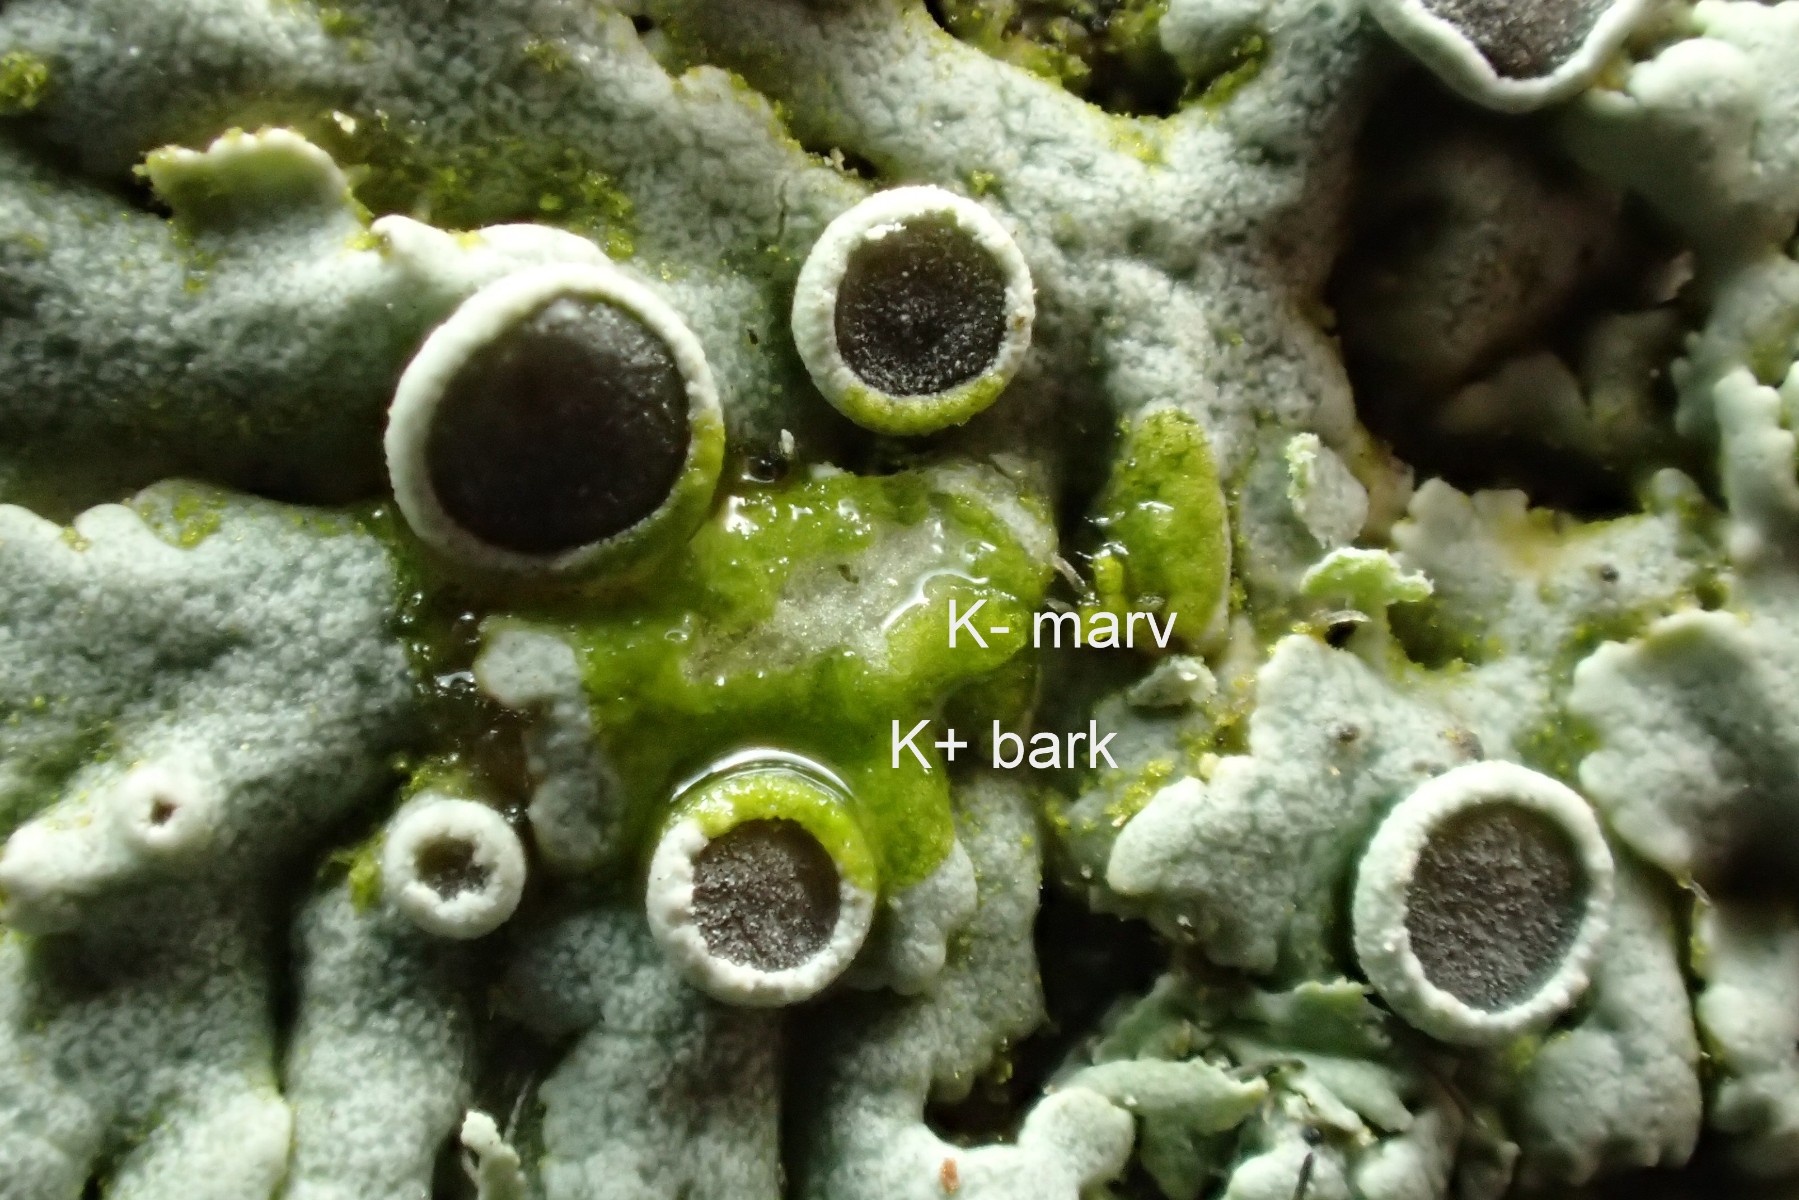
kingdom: Fungi
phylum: Ascomycota
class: Lecanoromycetes
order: Caliciales
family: Physciaceae
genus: Physcia
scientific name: Physcia aipolia
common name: hvidprikket rosetlav
